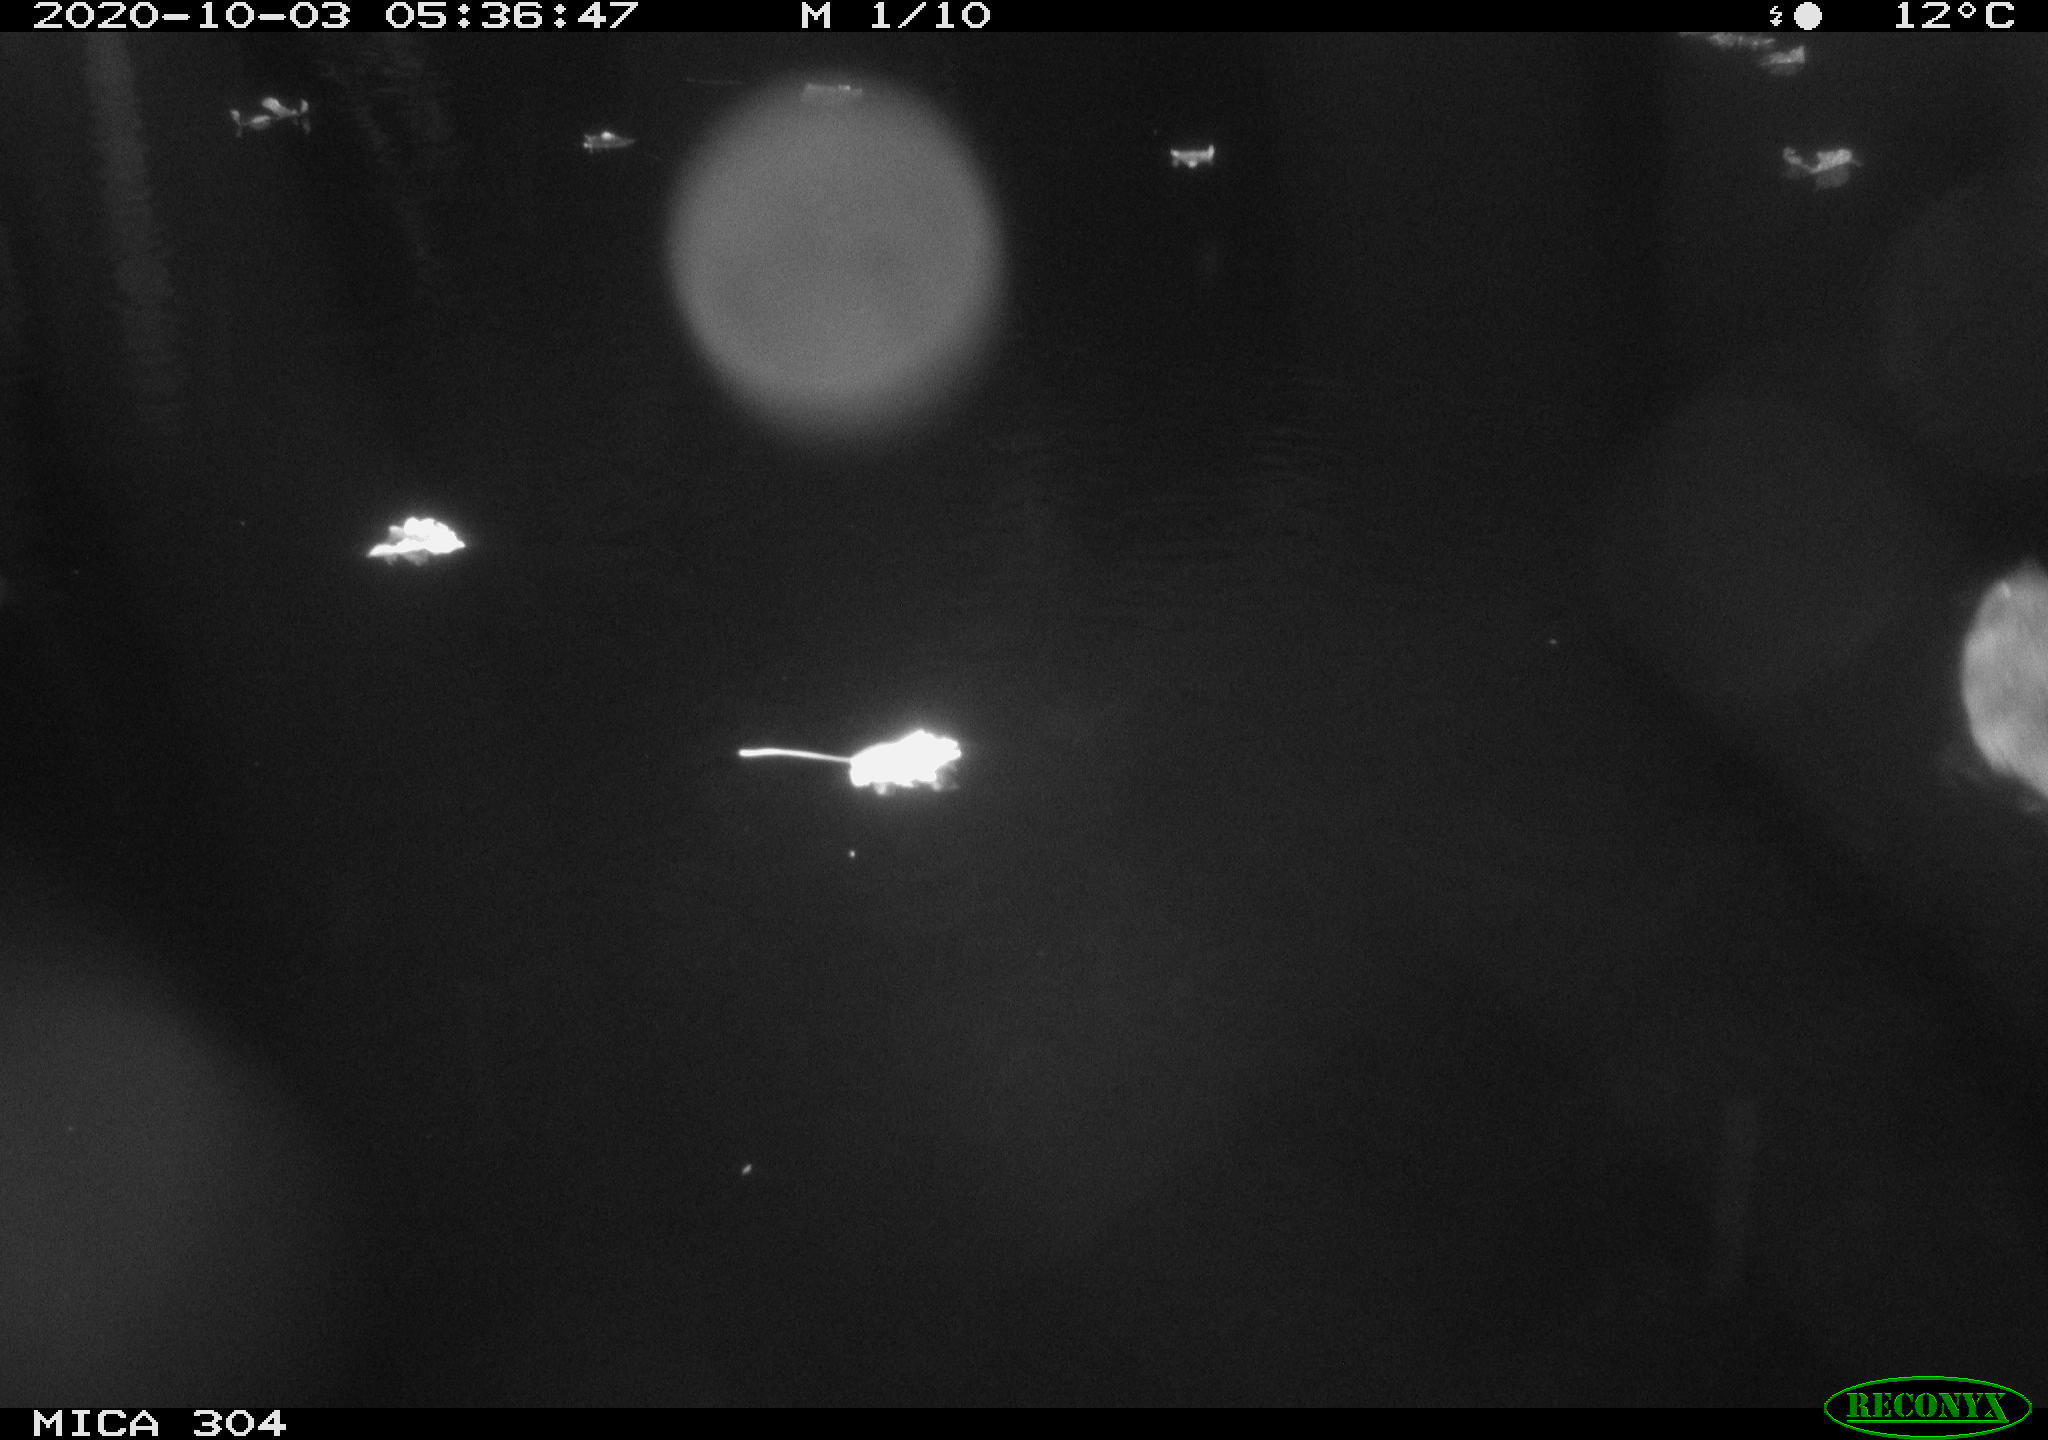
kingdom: Animalia
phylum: Chordata
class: Mammalia
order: Rodentia
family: Cricetidae
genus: Ondatra
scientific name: Ondatra zibethicus
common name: Muskrat
